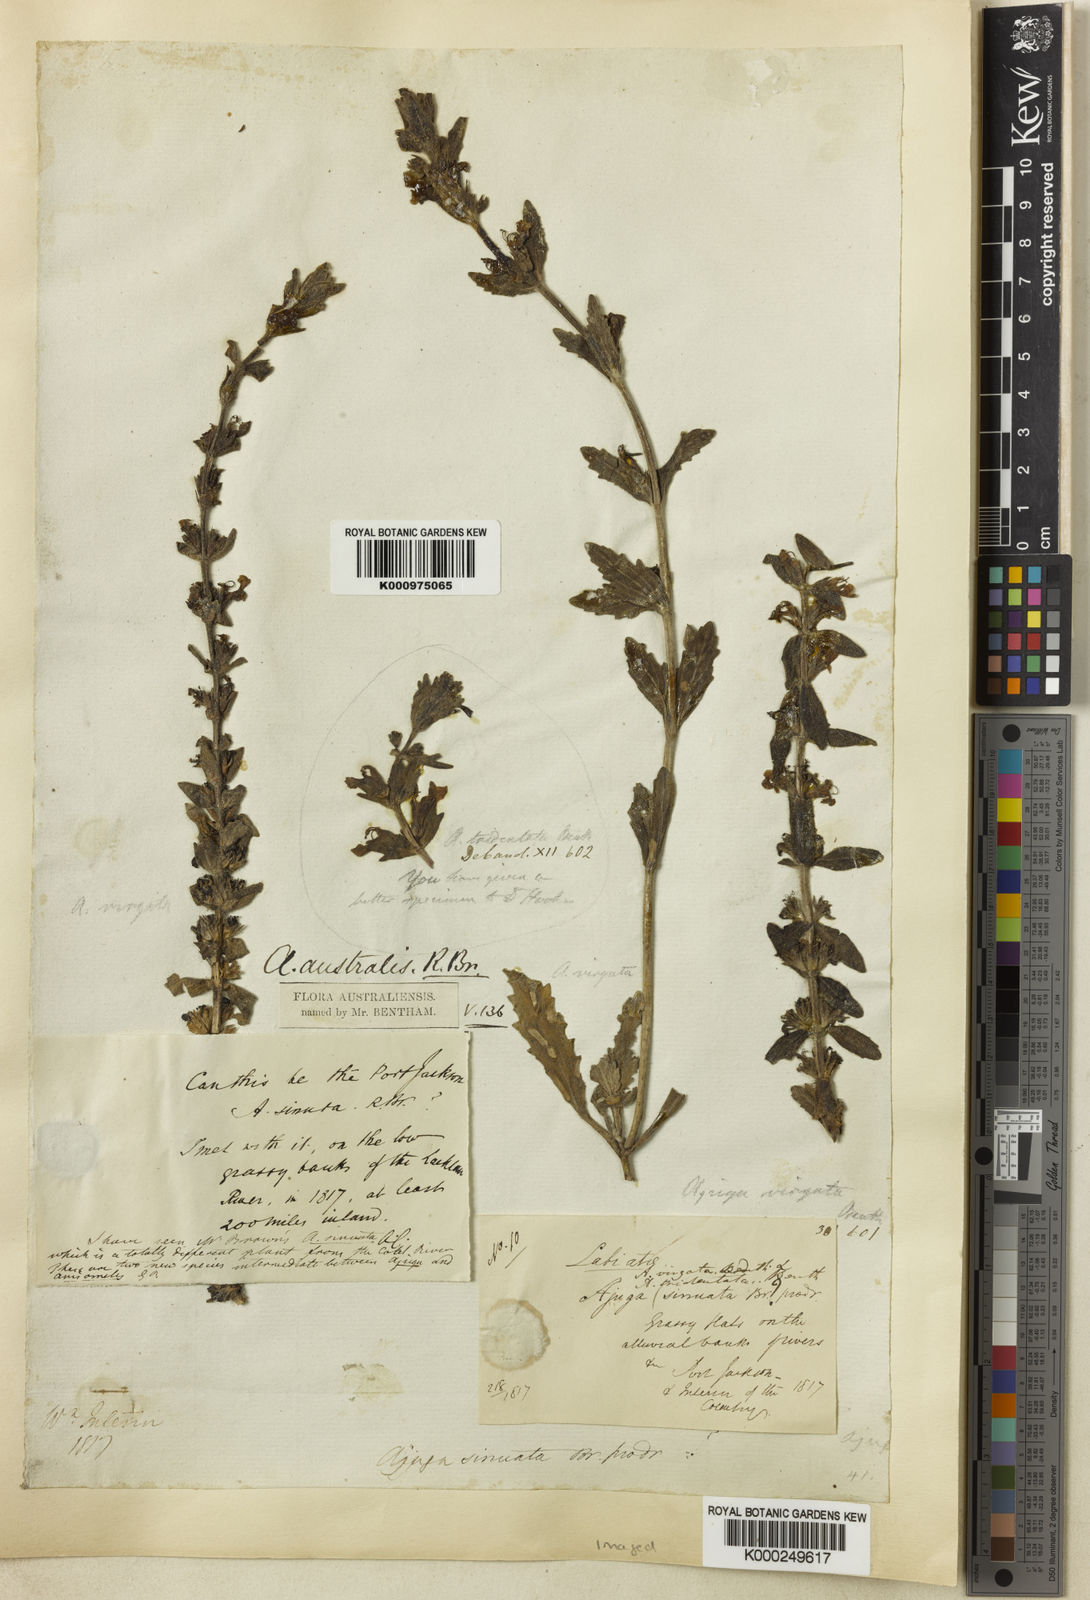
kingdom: Plantae
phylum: Tracheophyta
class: Magnoliopsida
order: Lamiales
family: Lamiaceae
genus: Ajuga
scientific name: Ajuga australis
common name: Australian bugle
